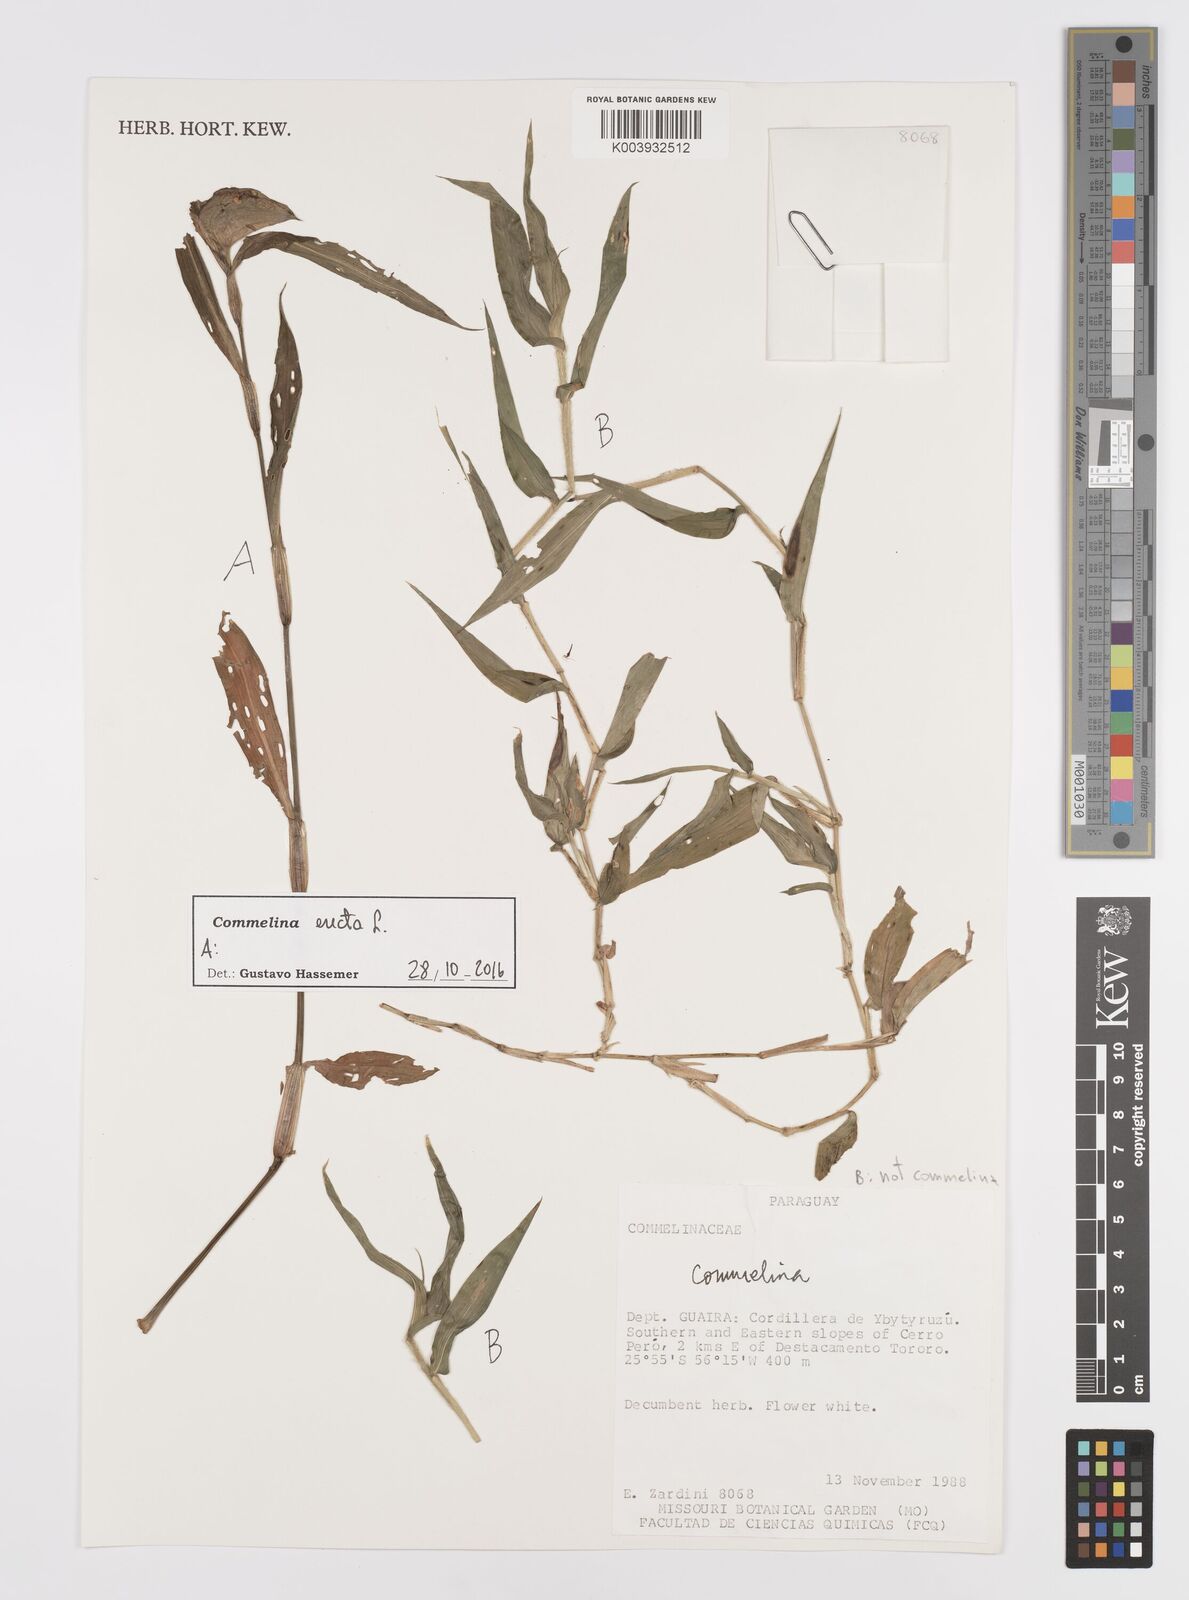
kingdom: Plantae
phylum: Tracheophyta
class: Liliopsida
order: Commelinales
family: Commelinaceae
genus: Commelina
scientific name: Commelina erecta
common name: Blousel blommetjie
